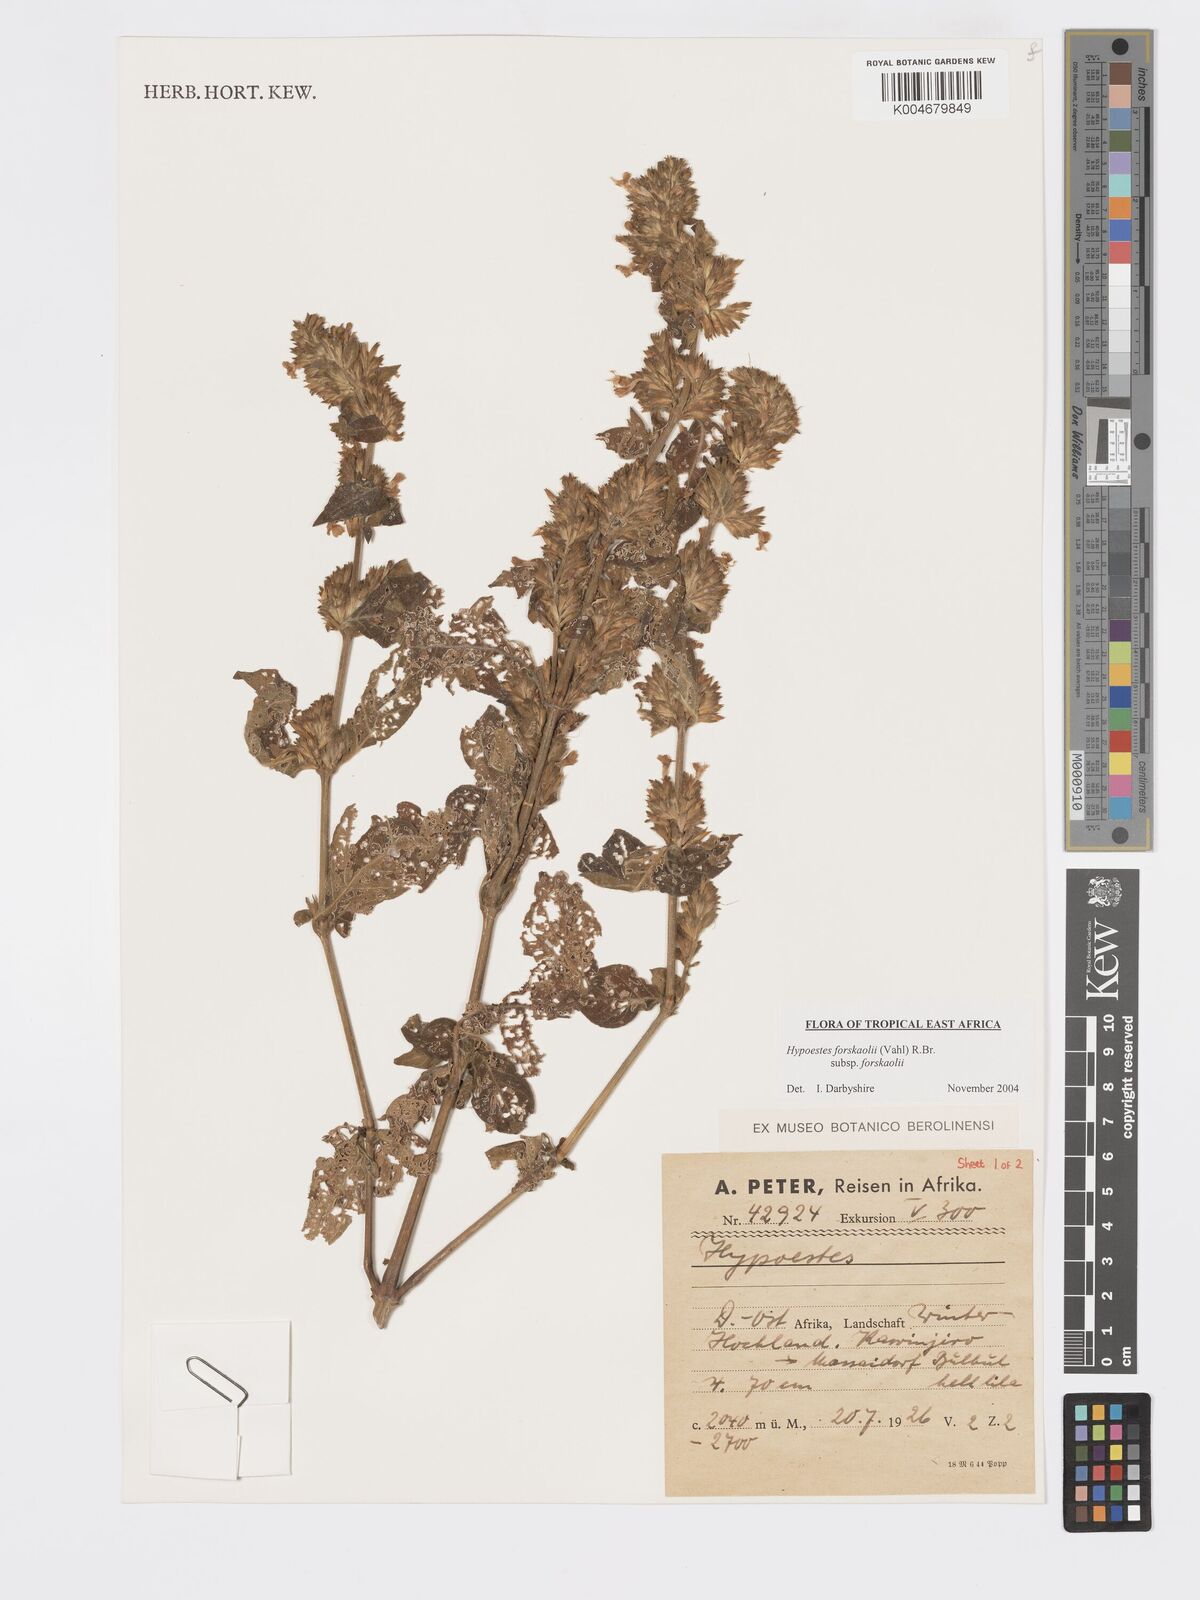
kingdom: Plantae
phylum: Tracheophyta
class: Magnoliopsida
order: Lamiales
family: Acanthaceae
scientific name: Acanthaceae
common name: Acanthaceae
